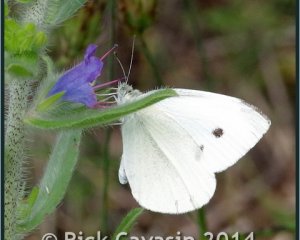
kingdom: Animalia
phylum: Arthropoda
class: Insecta
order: Lepidoptera
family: Pieridae
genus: Pieris
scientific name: Pieris rapae
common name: Cabbage White
